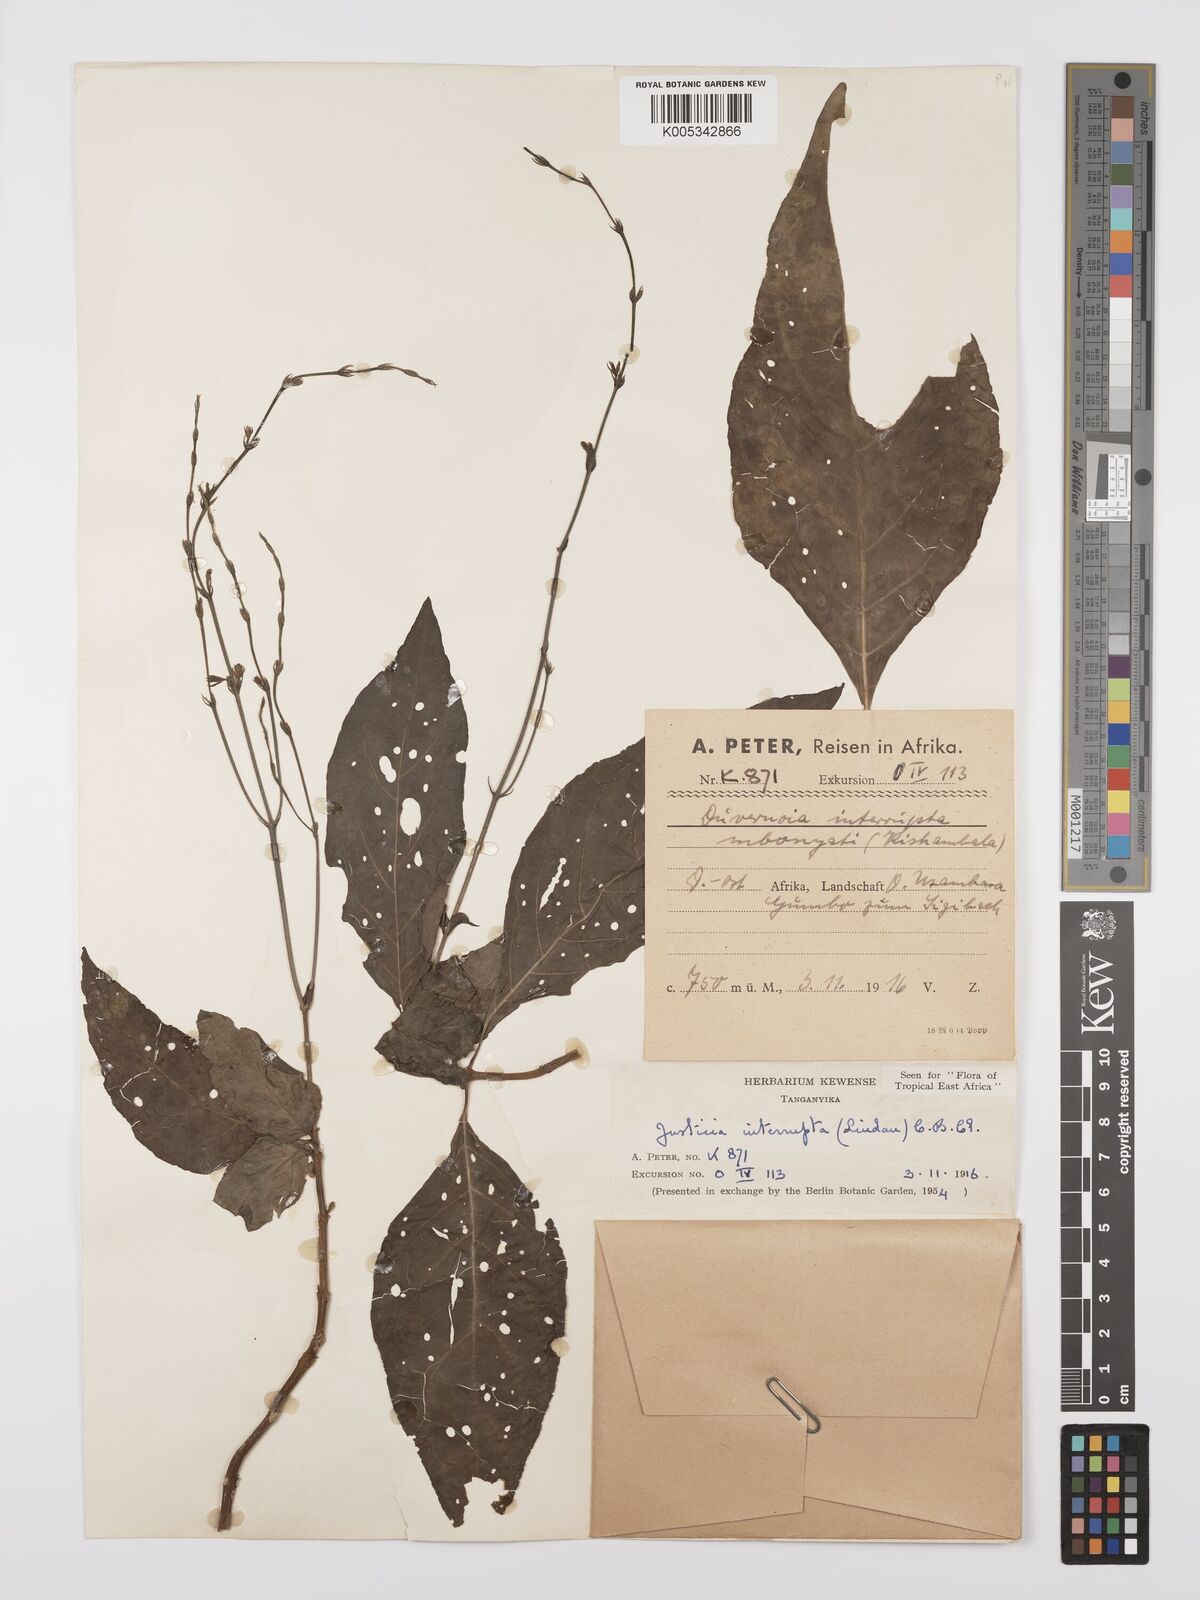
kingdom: Plantae
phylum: Tracheophyta
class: Magnoliopsida
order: Lamiales
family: Acanthaceae
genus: Justicia
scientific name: Justicia plectranthoides
